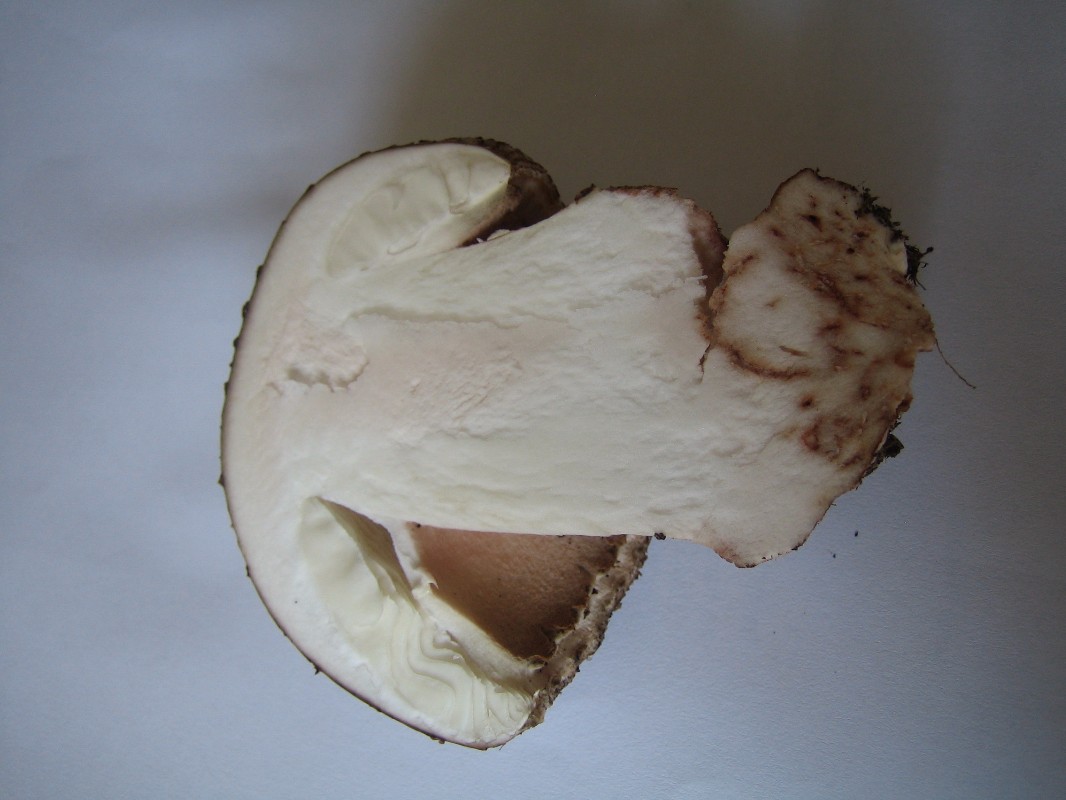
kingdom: Fungi
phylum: Basidiomycota
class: Agaricomycetes
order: Agaricales
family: Amanitaceae
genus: Amanita
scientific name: Amanita rubescens
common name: rødmende fluesvamp
